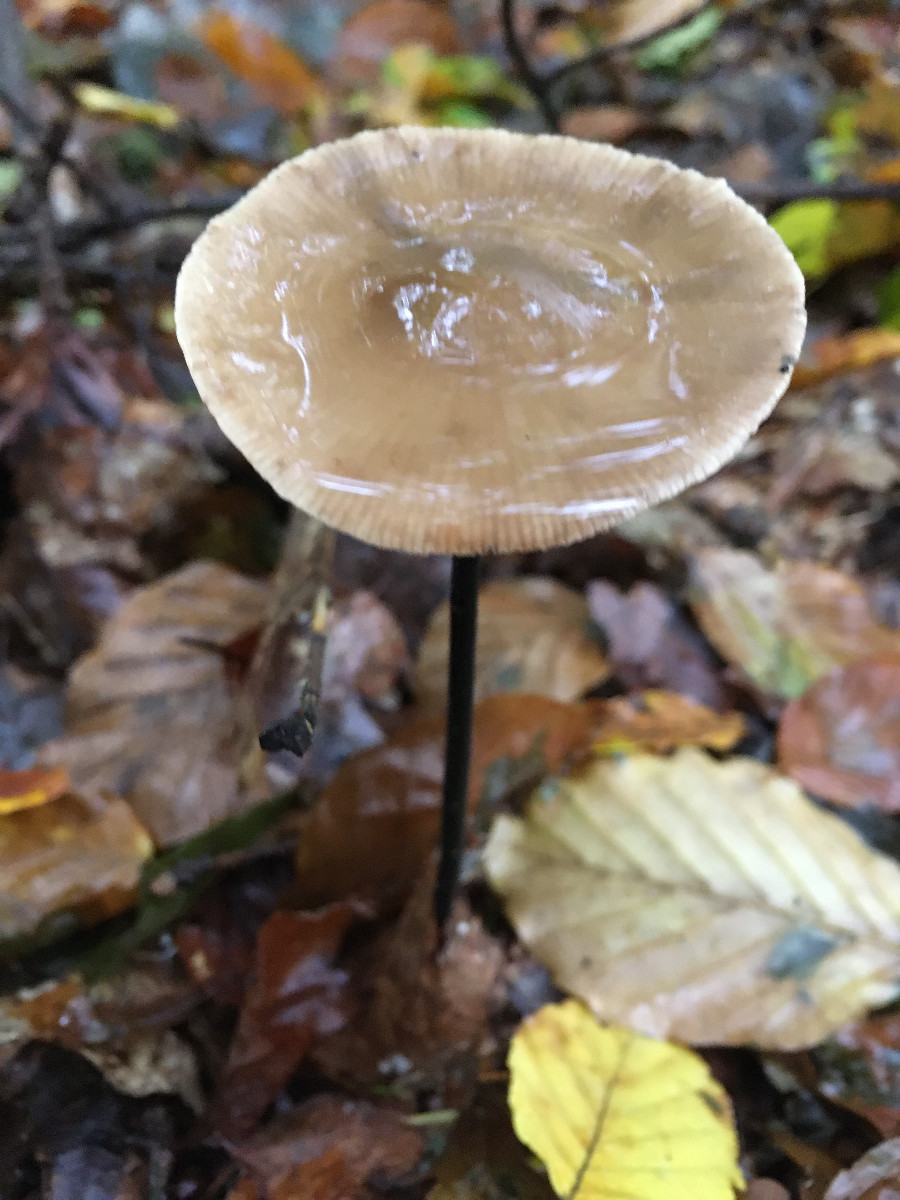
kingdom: Fungi
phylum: Basidiomycota
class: Agaricomycetes
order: Agaricales
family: Omphalotaceae
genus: Mycetinis
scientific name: Mycetinis alliaceus
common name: stor løghat
